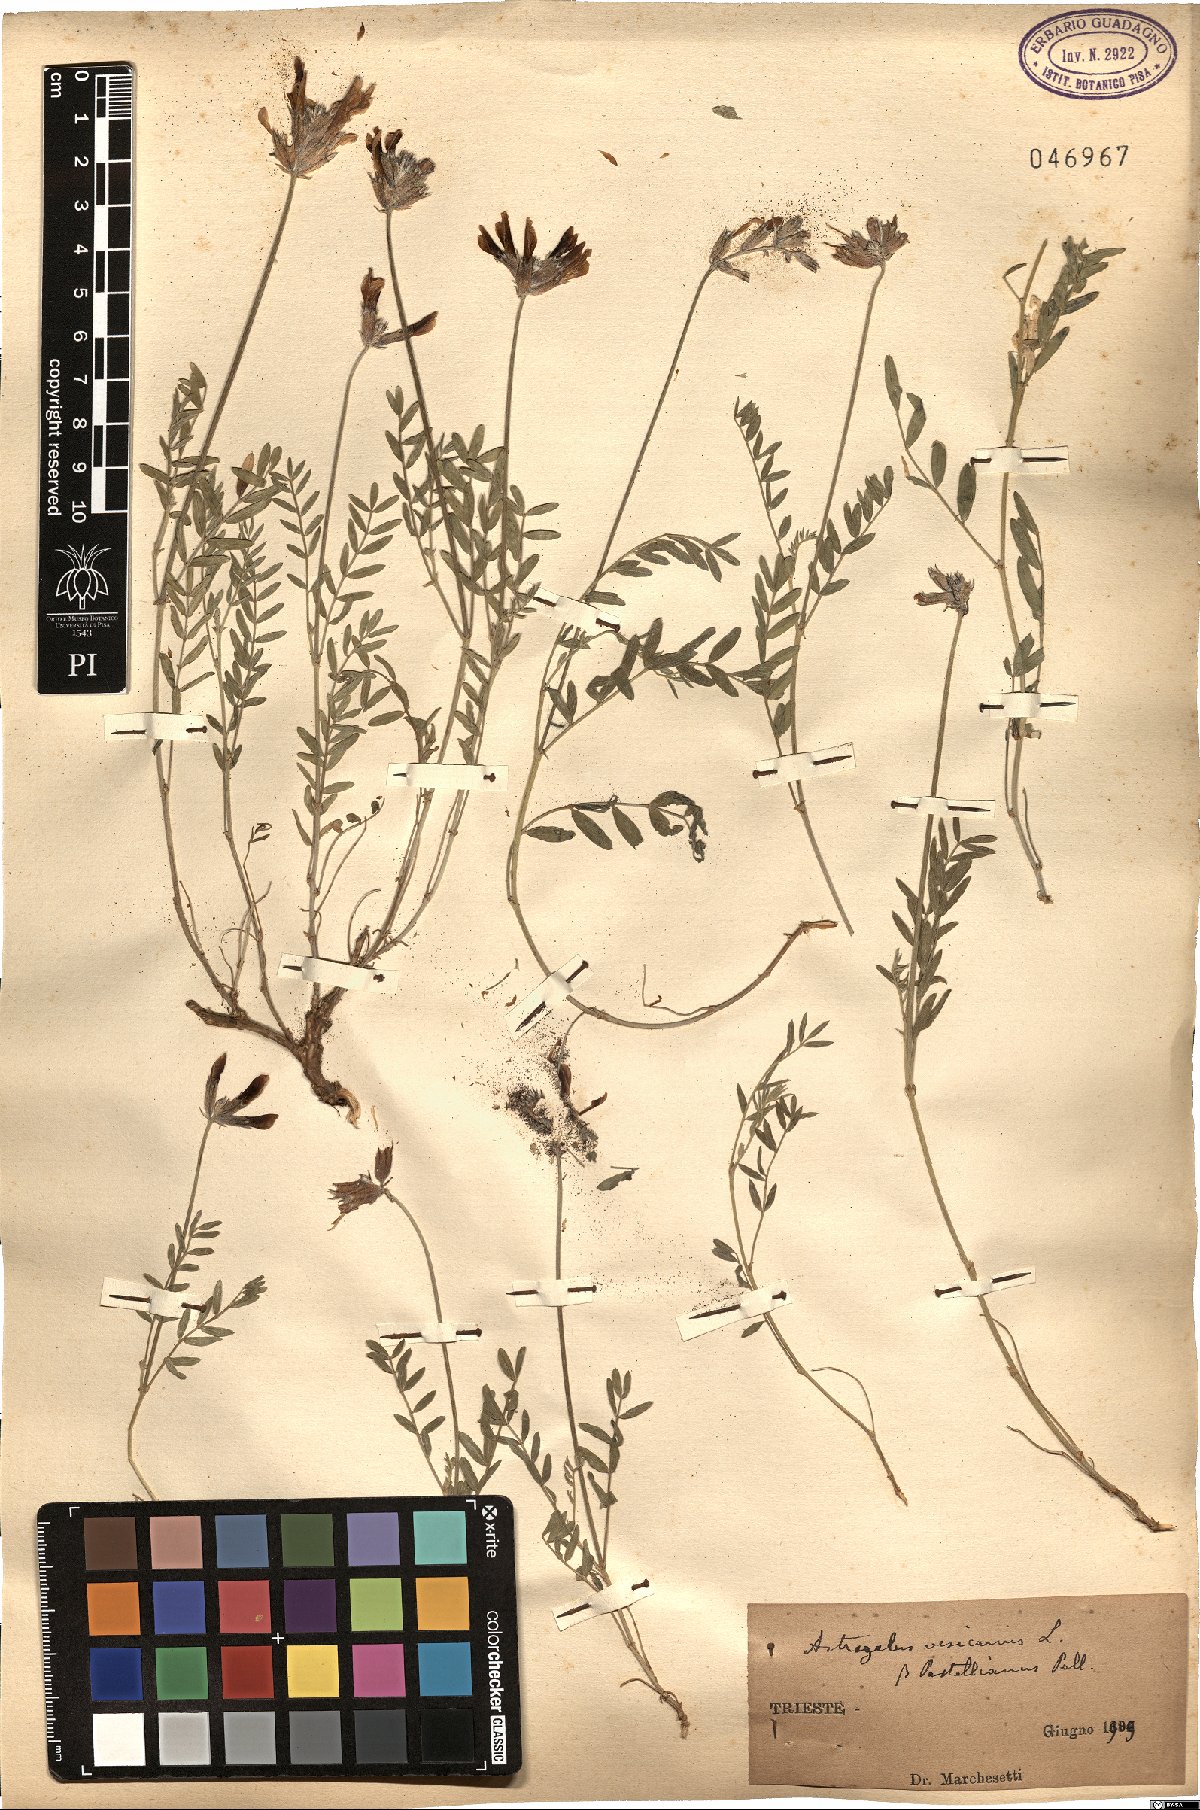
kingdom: Plantae
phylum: Tracheophyta
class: Magnoliopsida
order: Fabales
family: Fabaceae
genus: Astragalus
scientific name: Astragalus vesicarius
